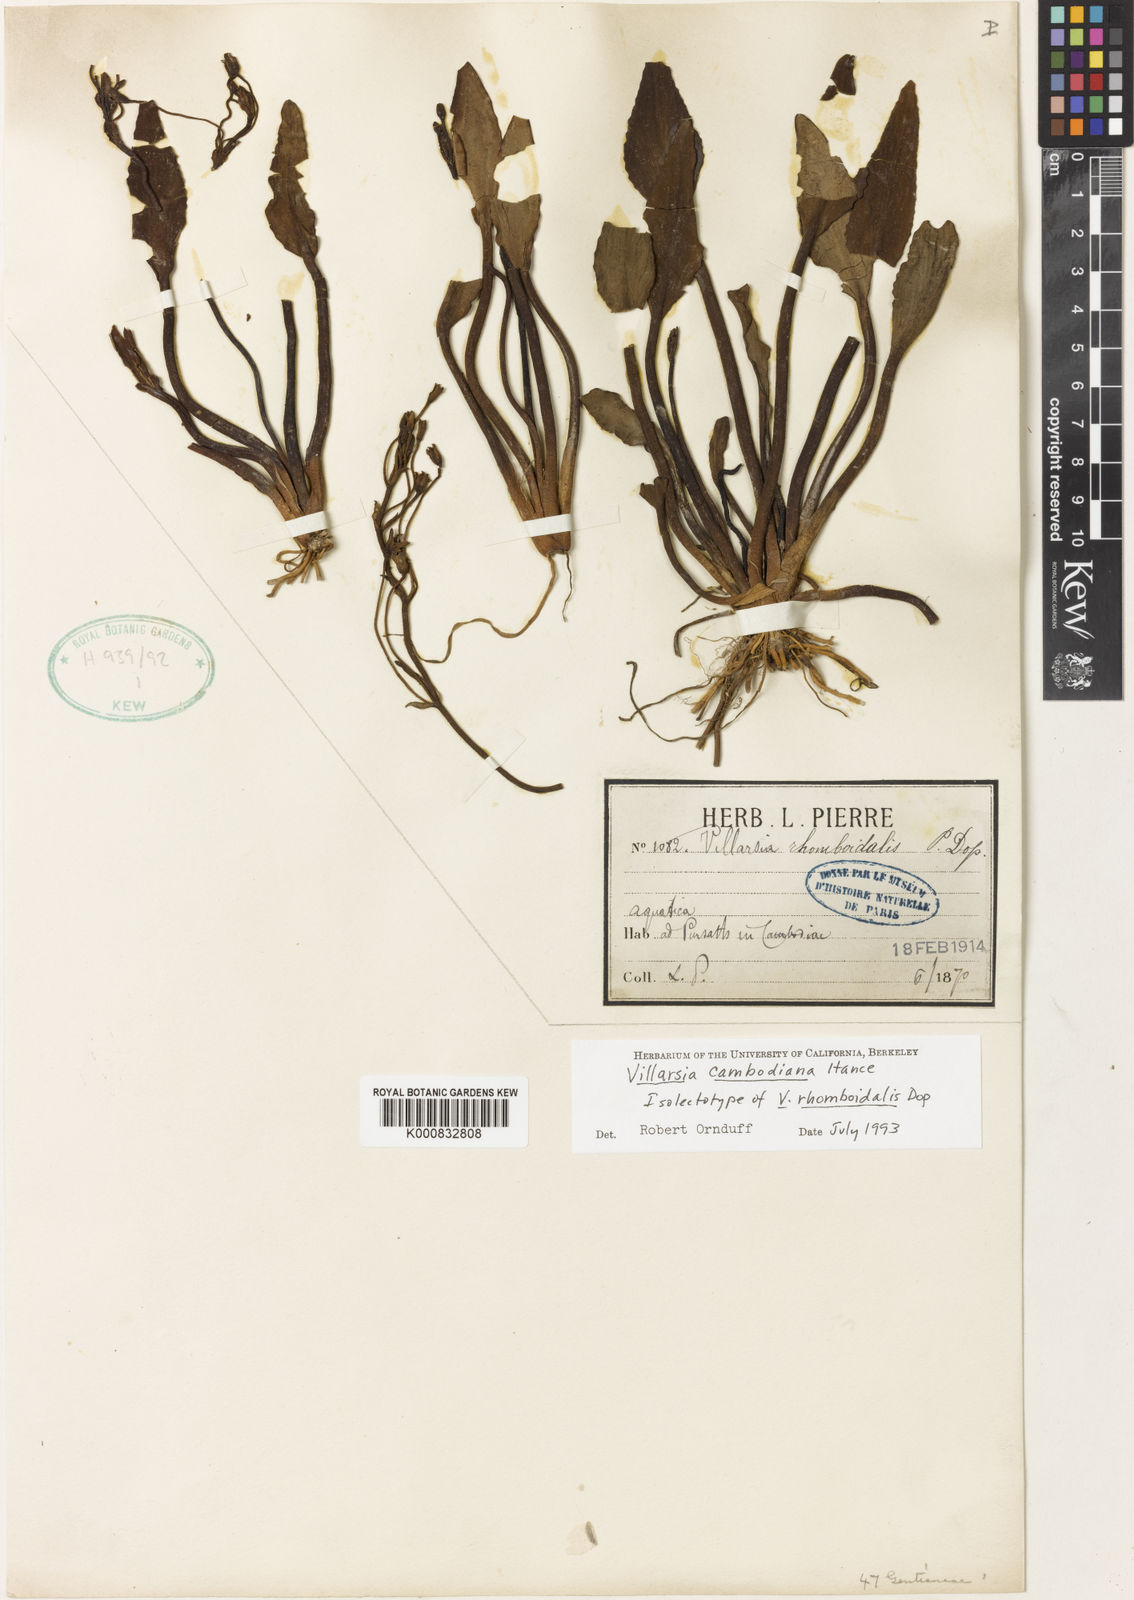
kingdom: Plantae
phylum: Tracheophyta
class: Magnoliopsida
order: Asterales
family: Menyanthaceae
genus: Nymphoides
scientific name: Nymphoides cambodiana
